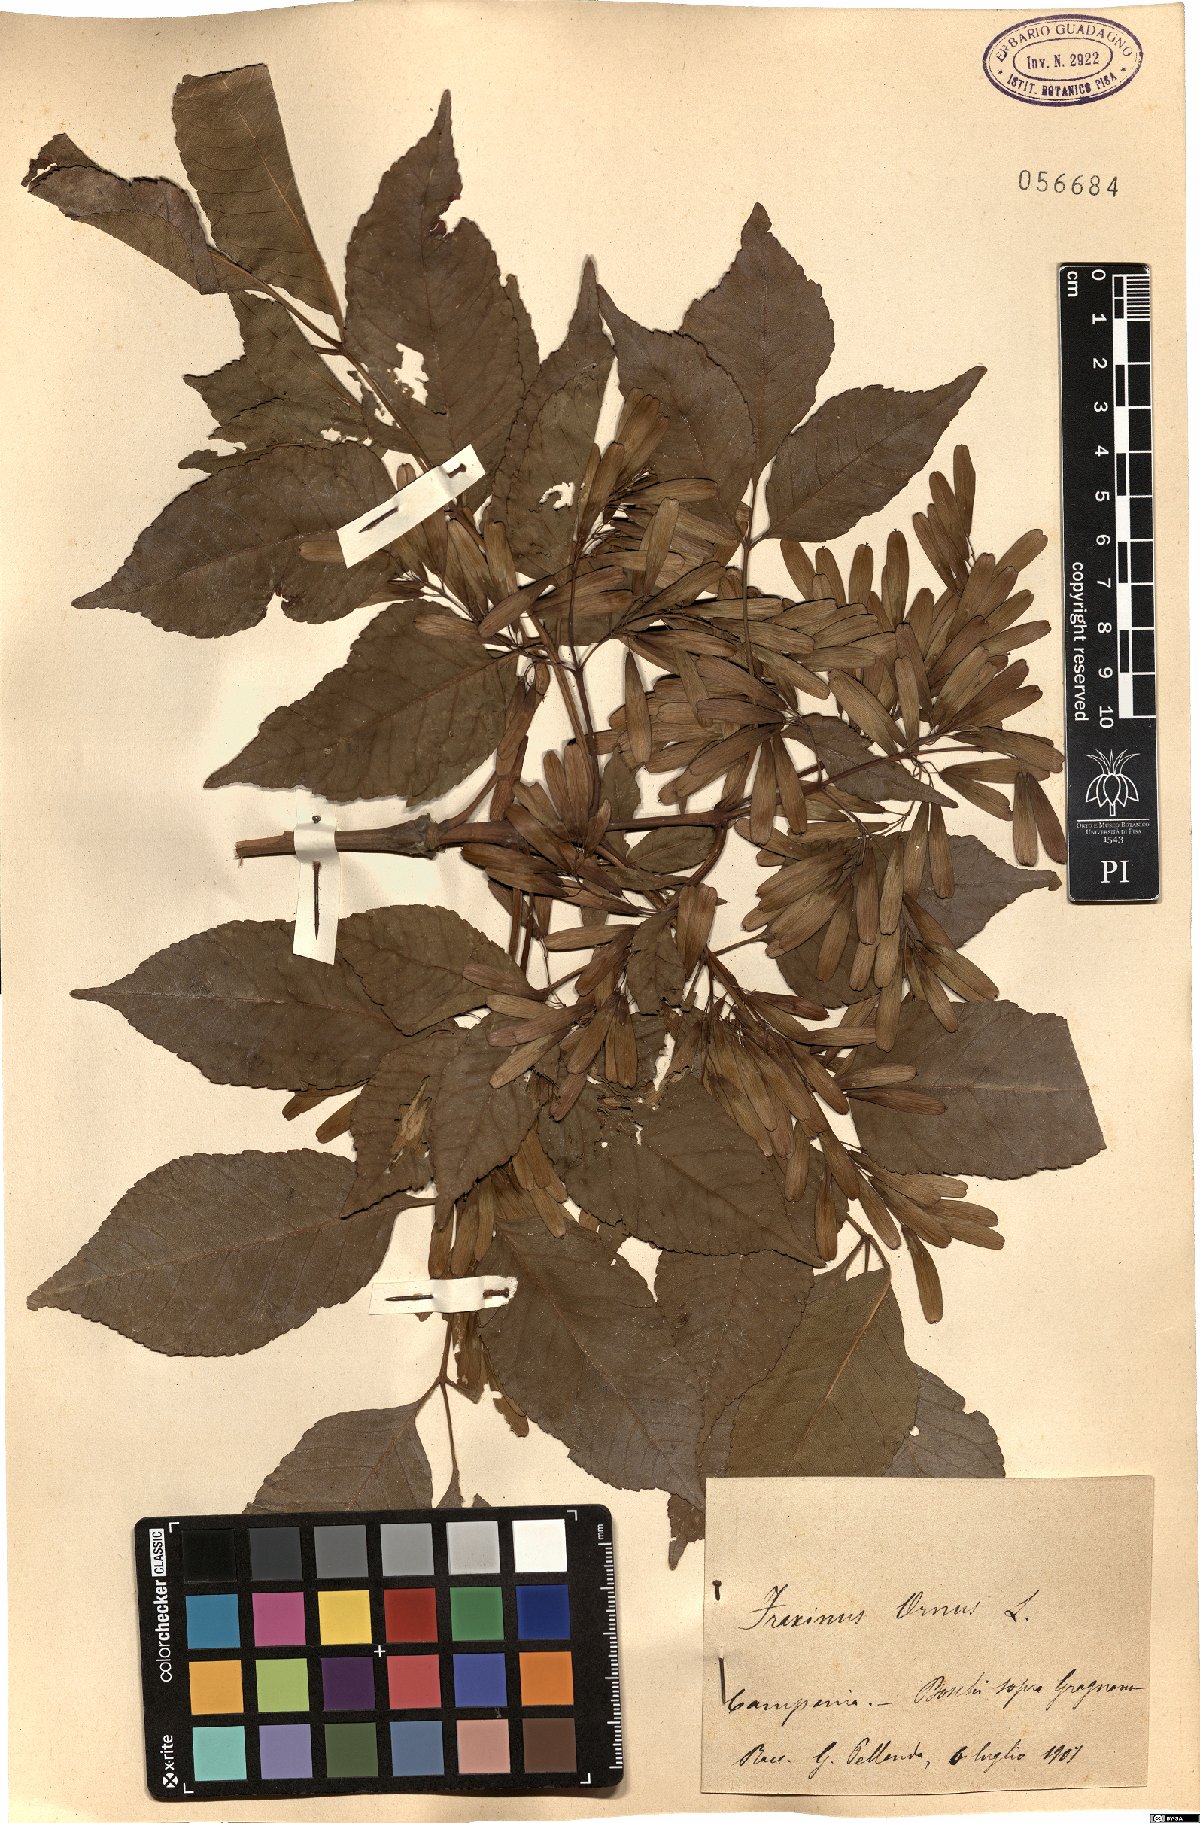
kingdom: Plantae
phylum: Tracheophyta
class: Magnoliopsida
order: Lamiales
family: Oleaceae
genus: Fraxinus
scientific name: Fraxinus ornus
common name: Manna ash
